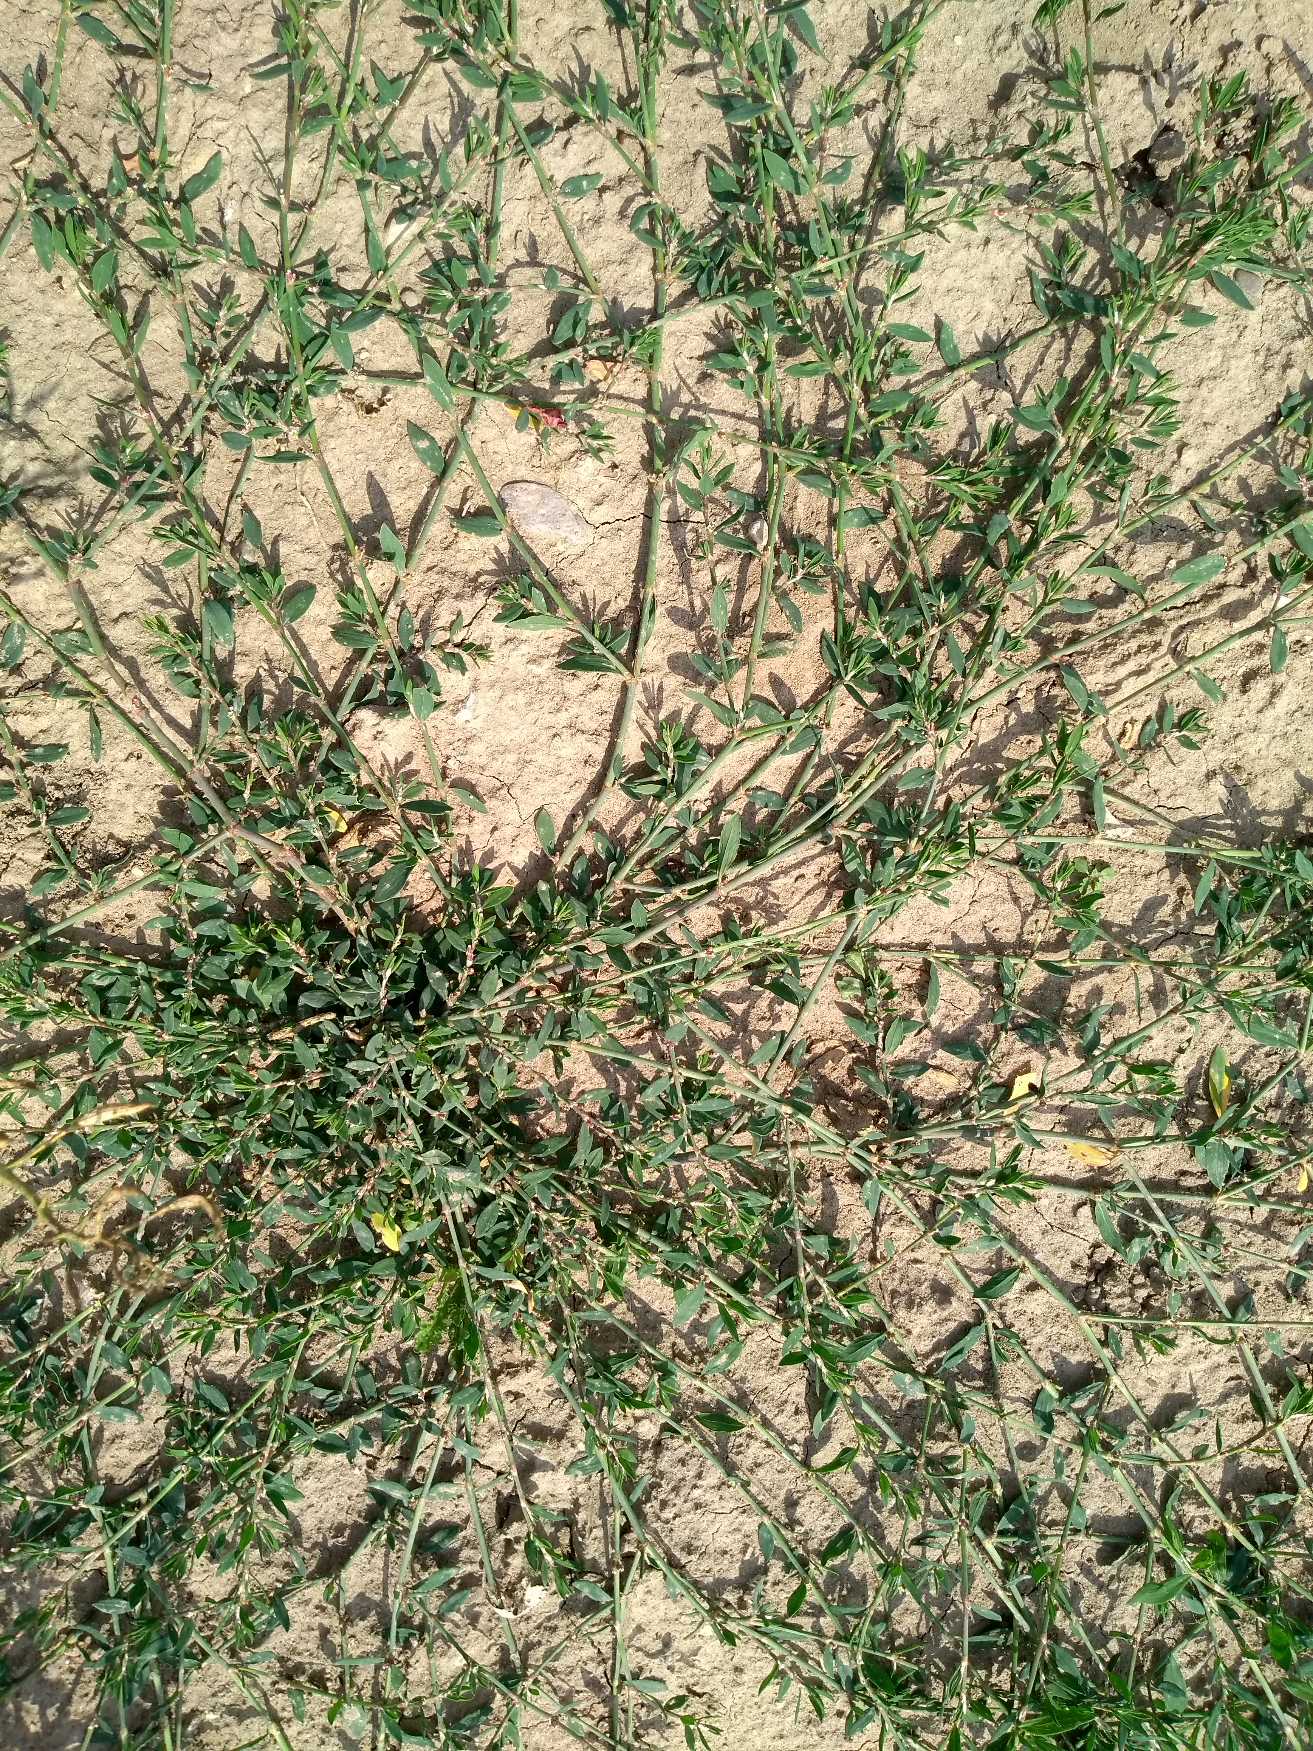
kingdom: Plantae
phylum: Tracheophyta
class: Magnoliopsida
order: Caryophyllales
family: Polygonaceae
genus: Polygonum
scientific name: Polygonum arenastrum
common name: Liggende vej-pileurt
